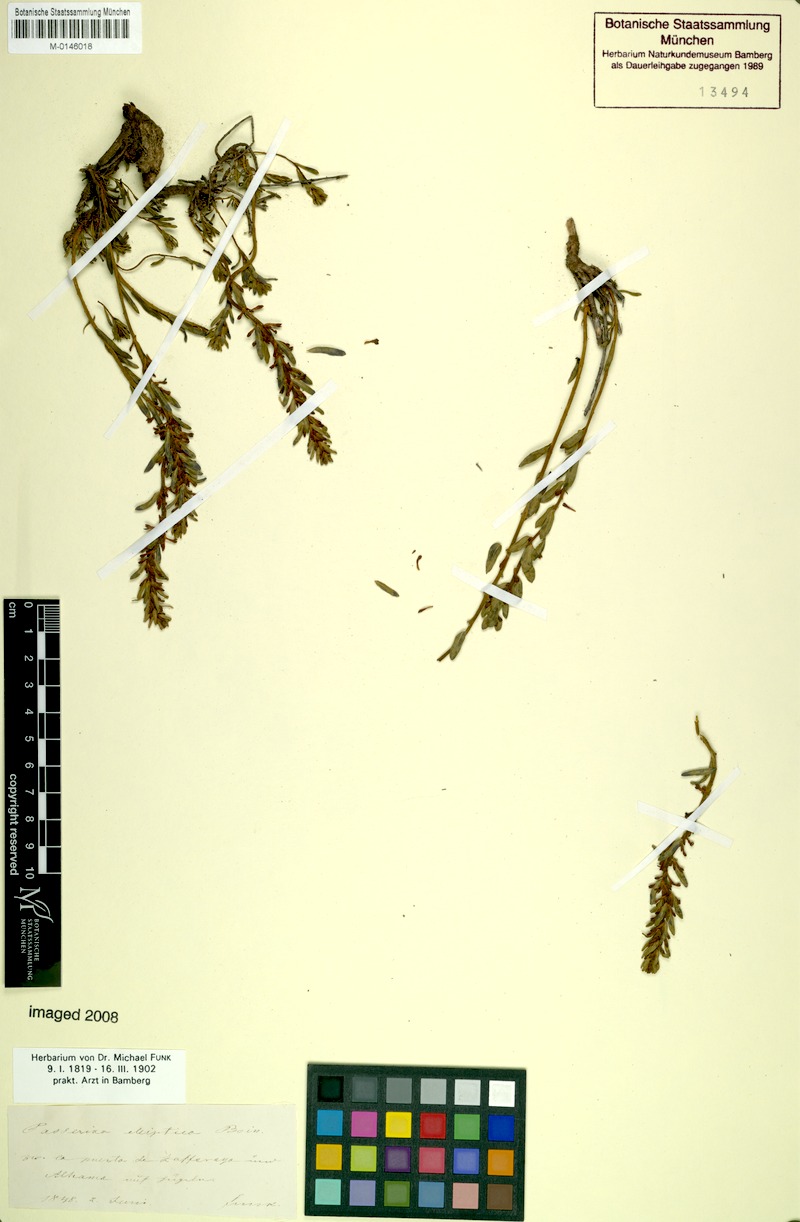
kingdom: Plantae
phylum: Tracheophyta
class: Magnoliopsida
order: Malvales
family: Thymelaeaceae
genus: Thymelaea
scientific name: Thymelaea pubescens
